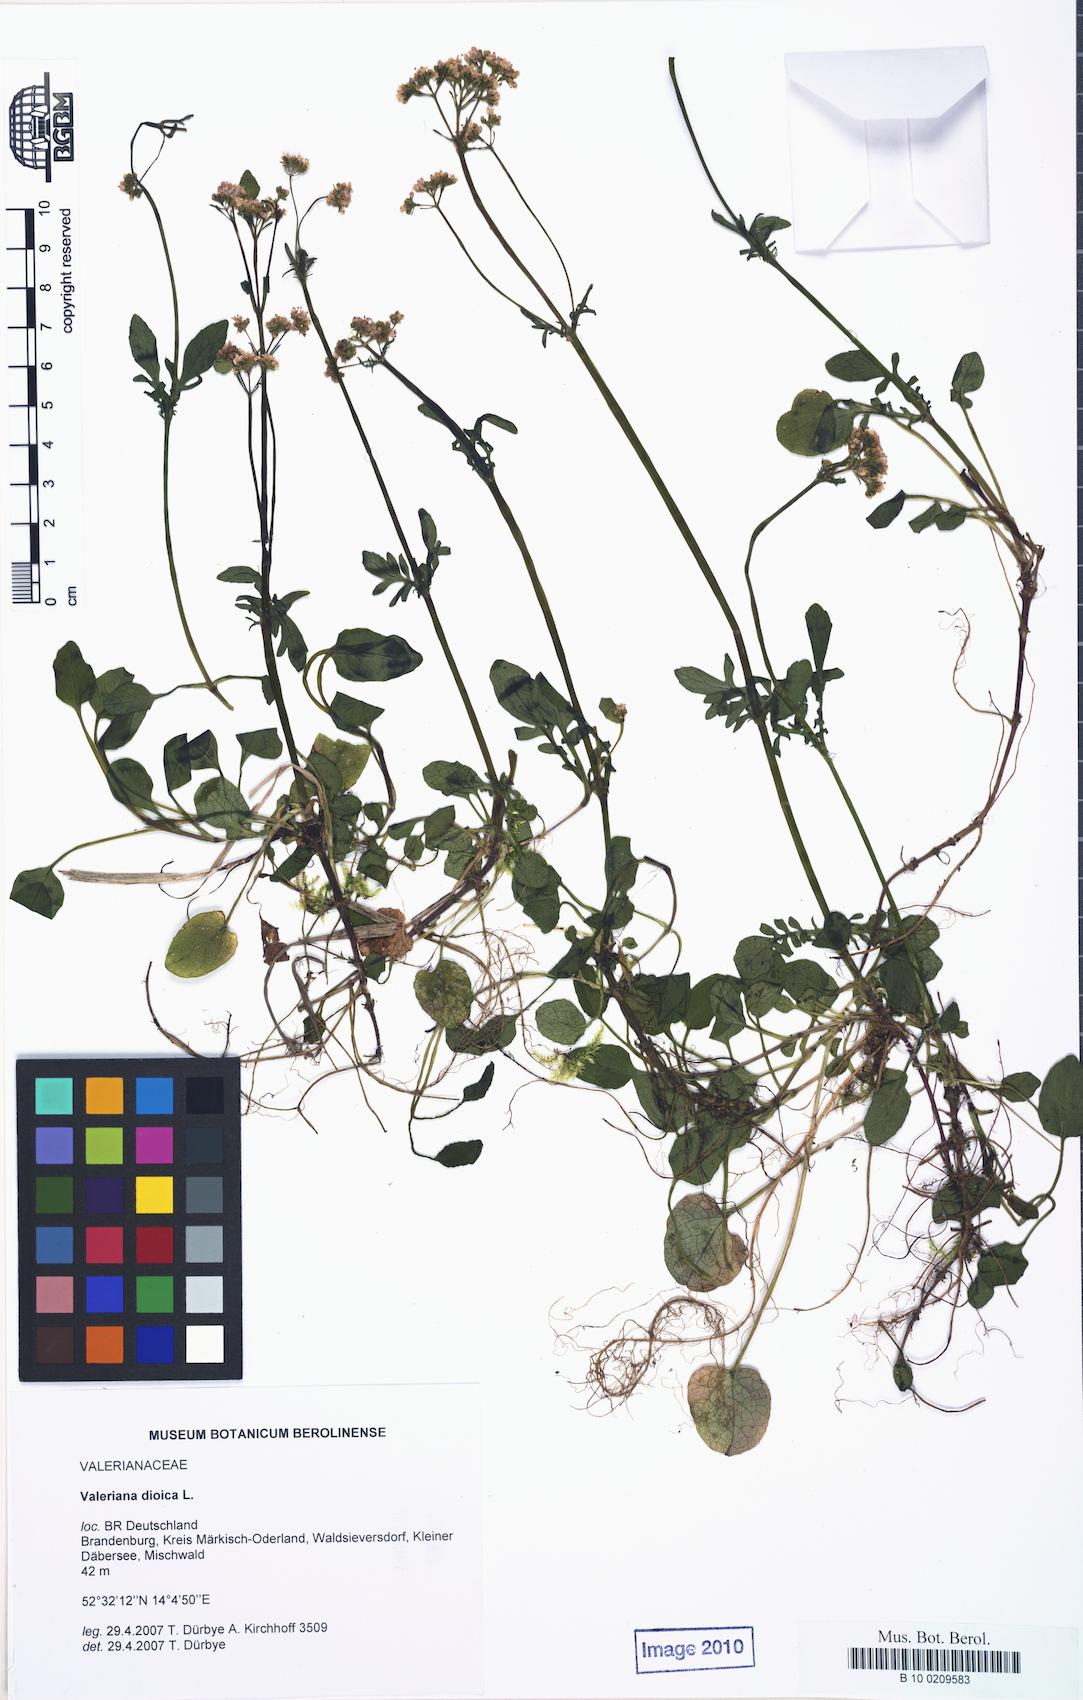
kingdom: Plantae
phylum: Tracheophyta
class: Magnoliopsida
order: Dipsacales
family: Caprifoliaceae
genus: Valeriana
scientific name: Valeriana dioica
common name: Marsh valerian
